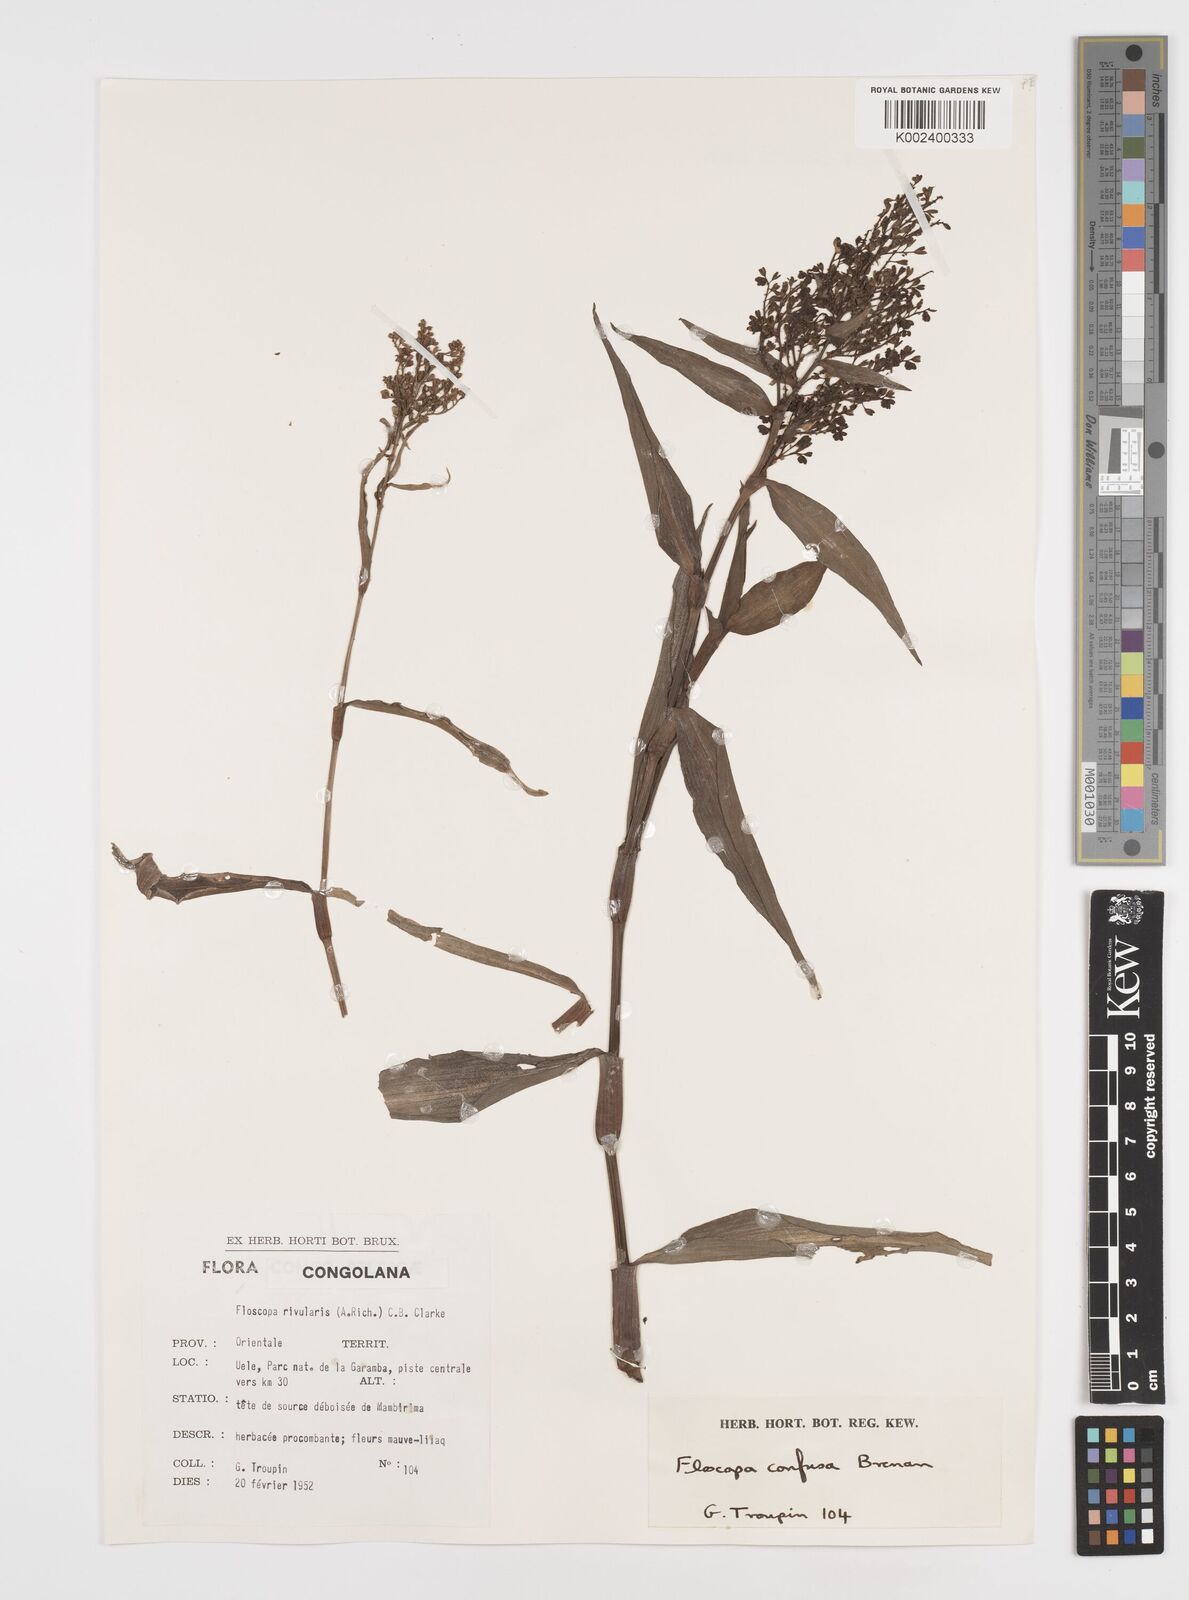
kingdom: Plantae
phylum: Tracheophyta
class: Liliopsida
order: Commelinales
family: Commelinaceae
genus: Floscopa
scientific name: Floscopa confusa
